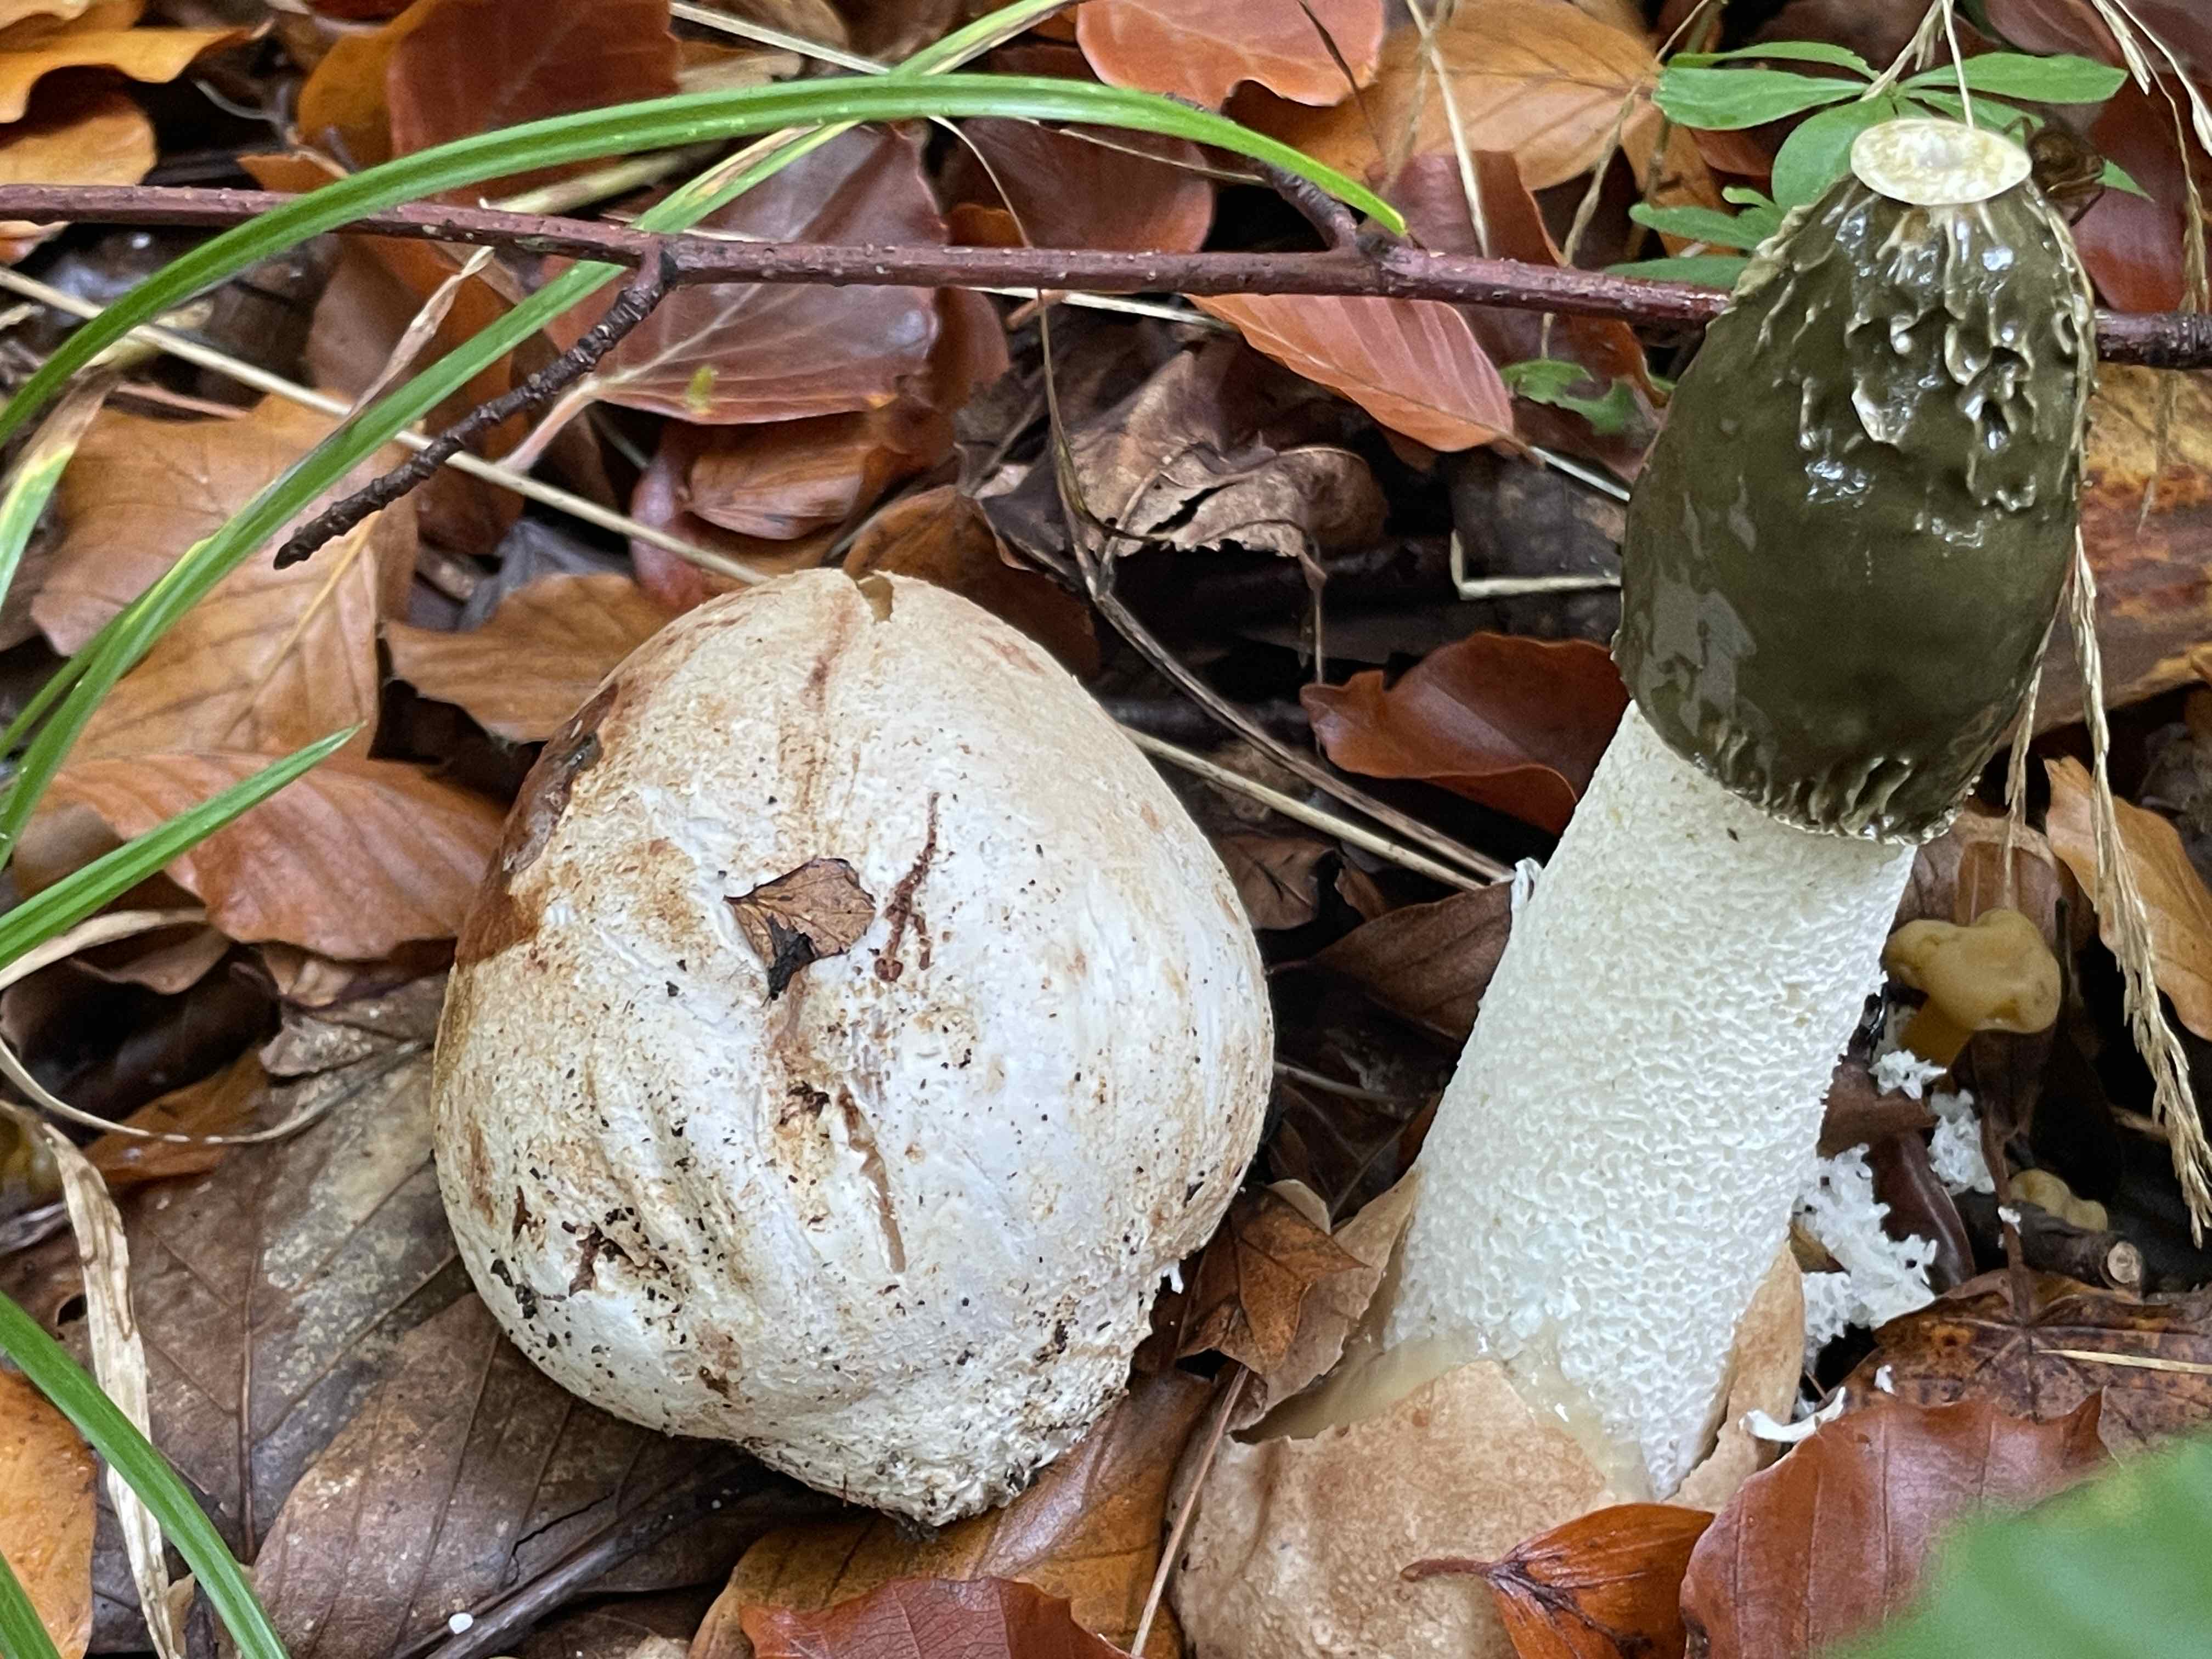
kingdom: Fungi
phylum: Basidiomycota
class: Agaricomycetes
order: Phallales
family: Phallaceae
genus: Phallus
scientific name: Phallus impudicus
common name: almindelig stinksvamp
